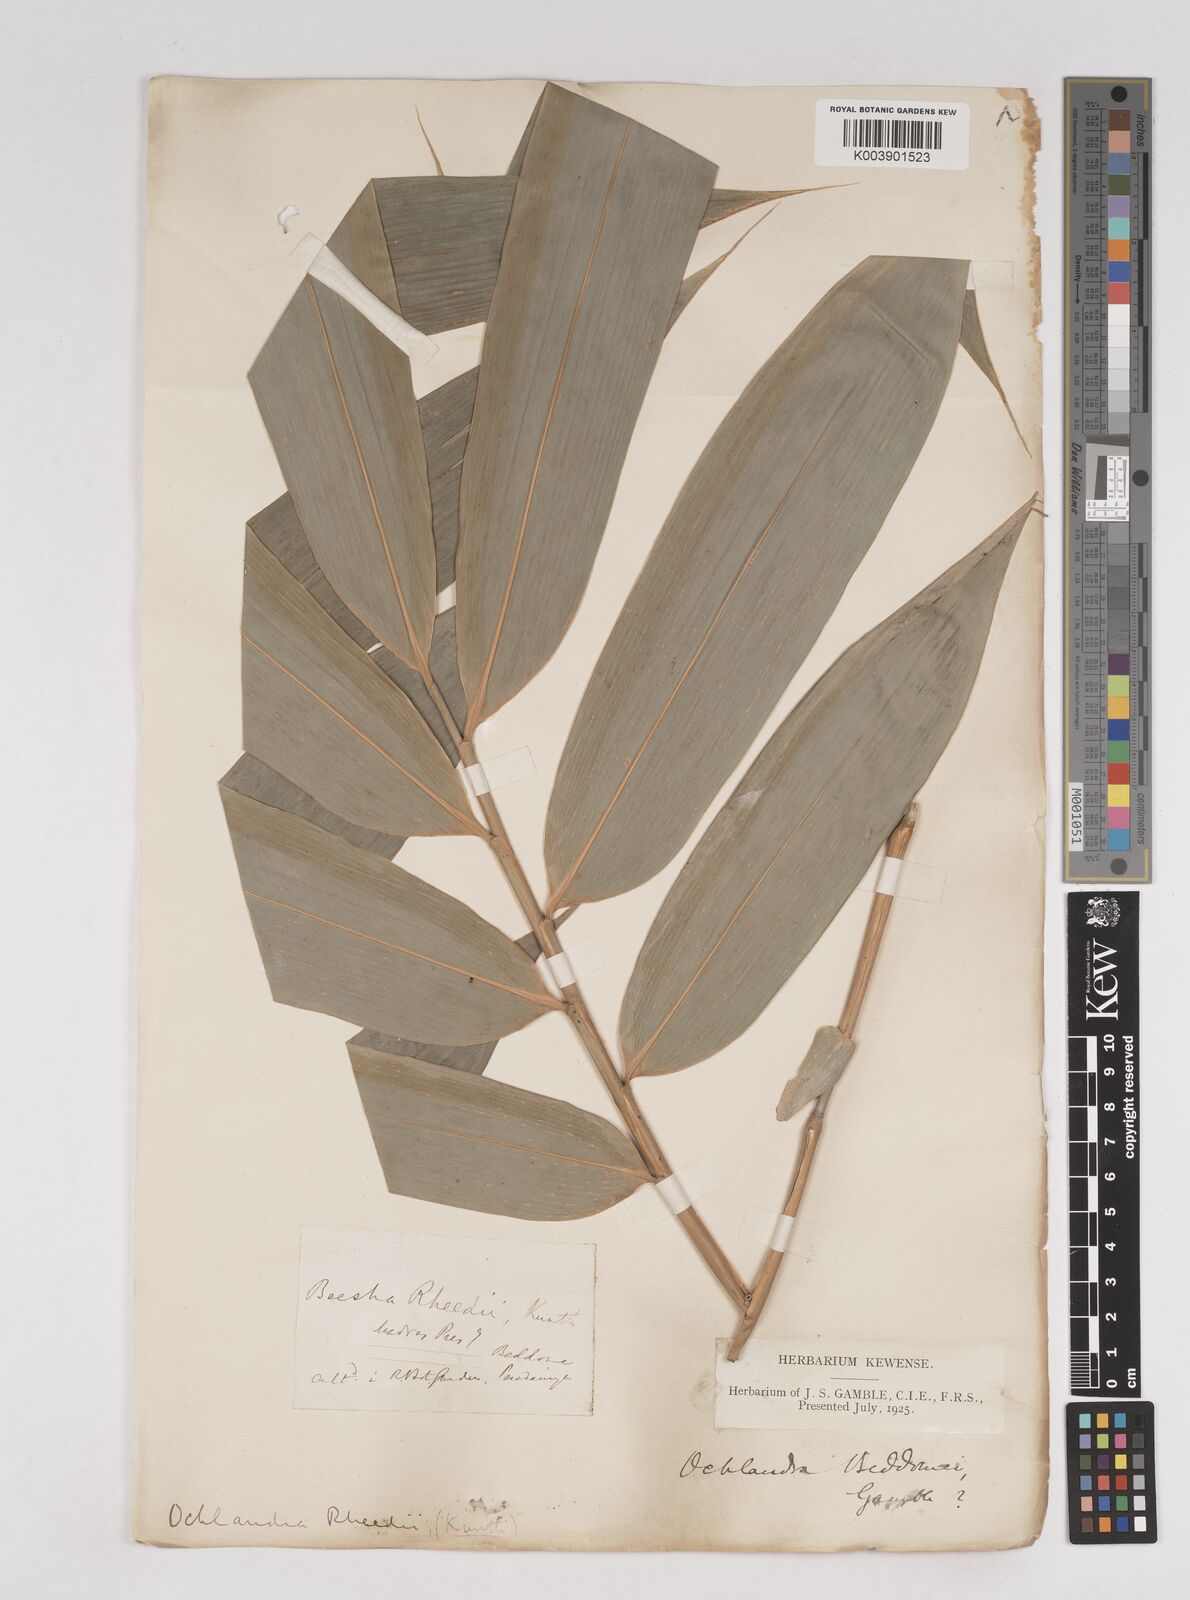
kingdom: Plantae
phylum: Tracheophyta
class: Liliopsida
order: Poales
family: Poaceae
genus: Ochlandra
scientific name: Ochlandra beddomei
